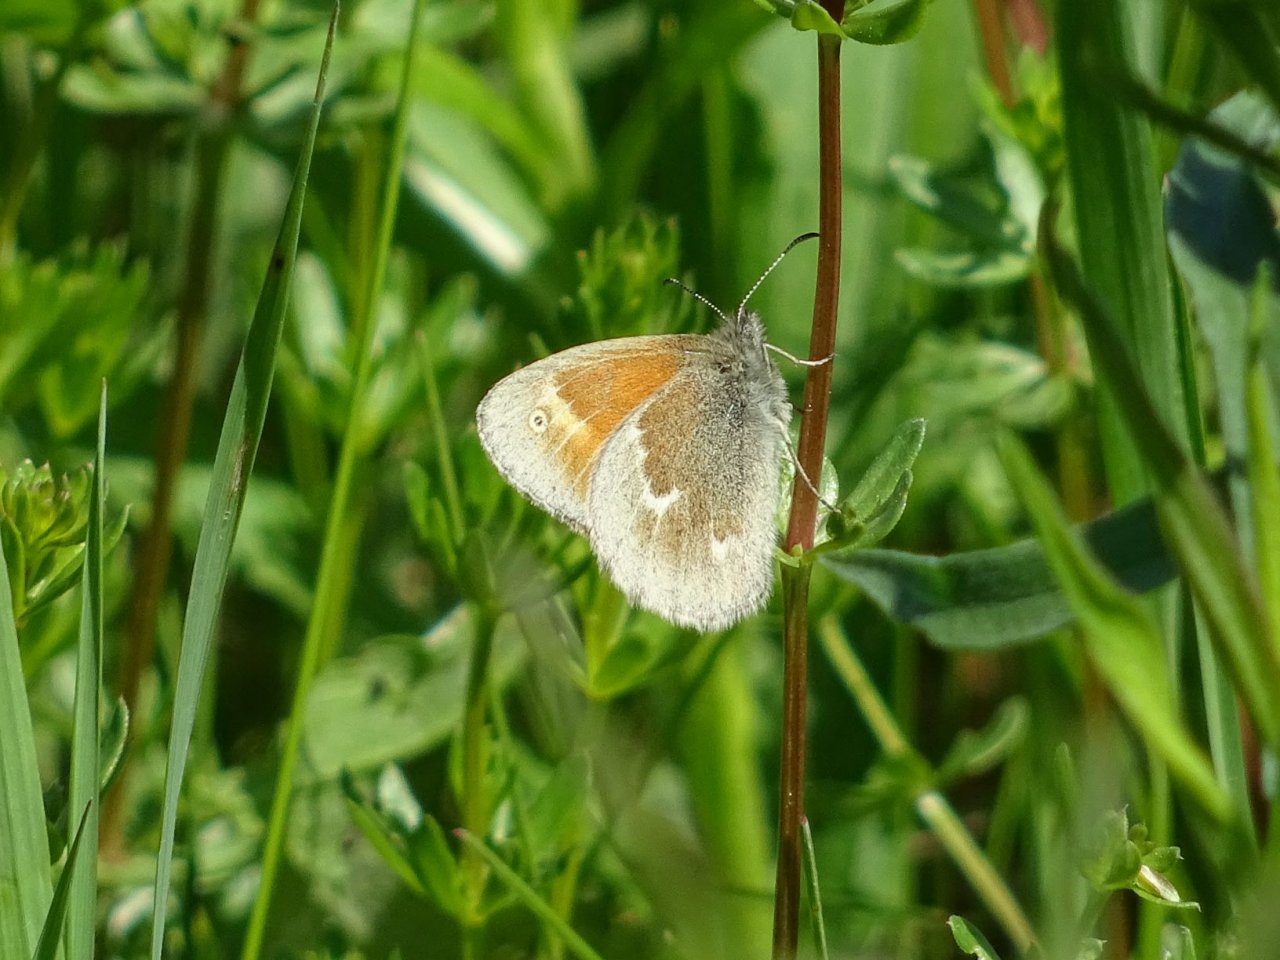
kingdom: Animalia
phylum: Arthropoda
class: Insecta
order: Lepidoptera
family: Nymphalidae
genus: Coenonympha
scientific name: Coenonympha tullia
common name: Large Heath
